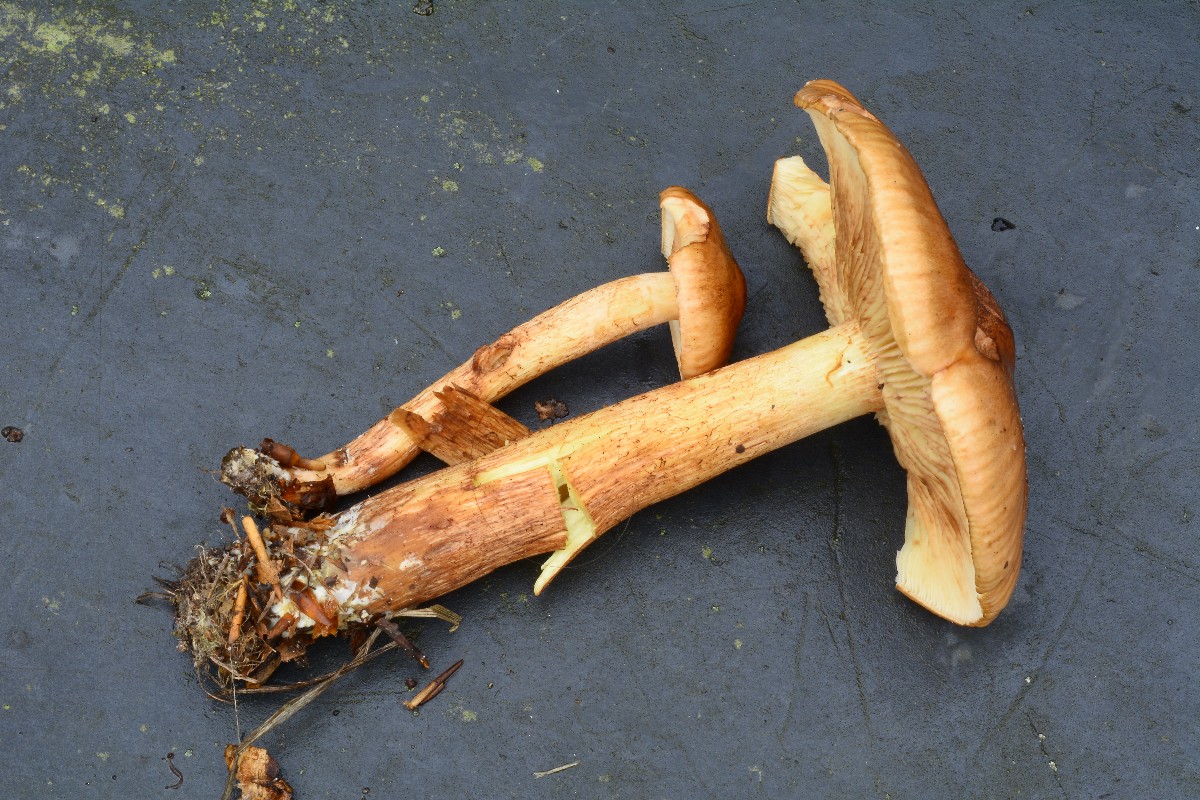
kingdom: Fungi
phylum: Basidiomycota
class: Agaricomycetes
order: Agaricales
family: Tricholomataceae
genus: Tricholoma
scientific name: Tricholoma fulvum
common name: birke-ridderhat
